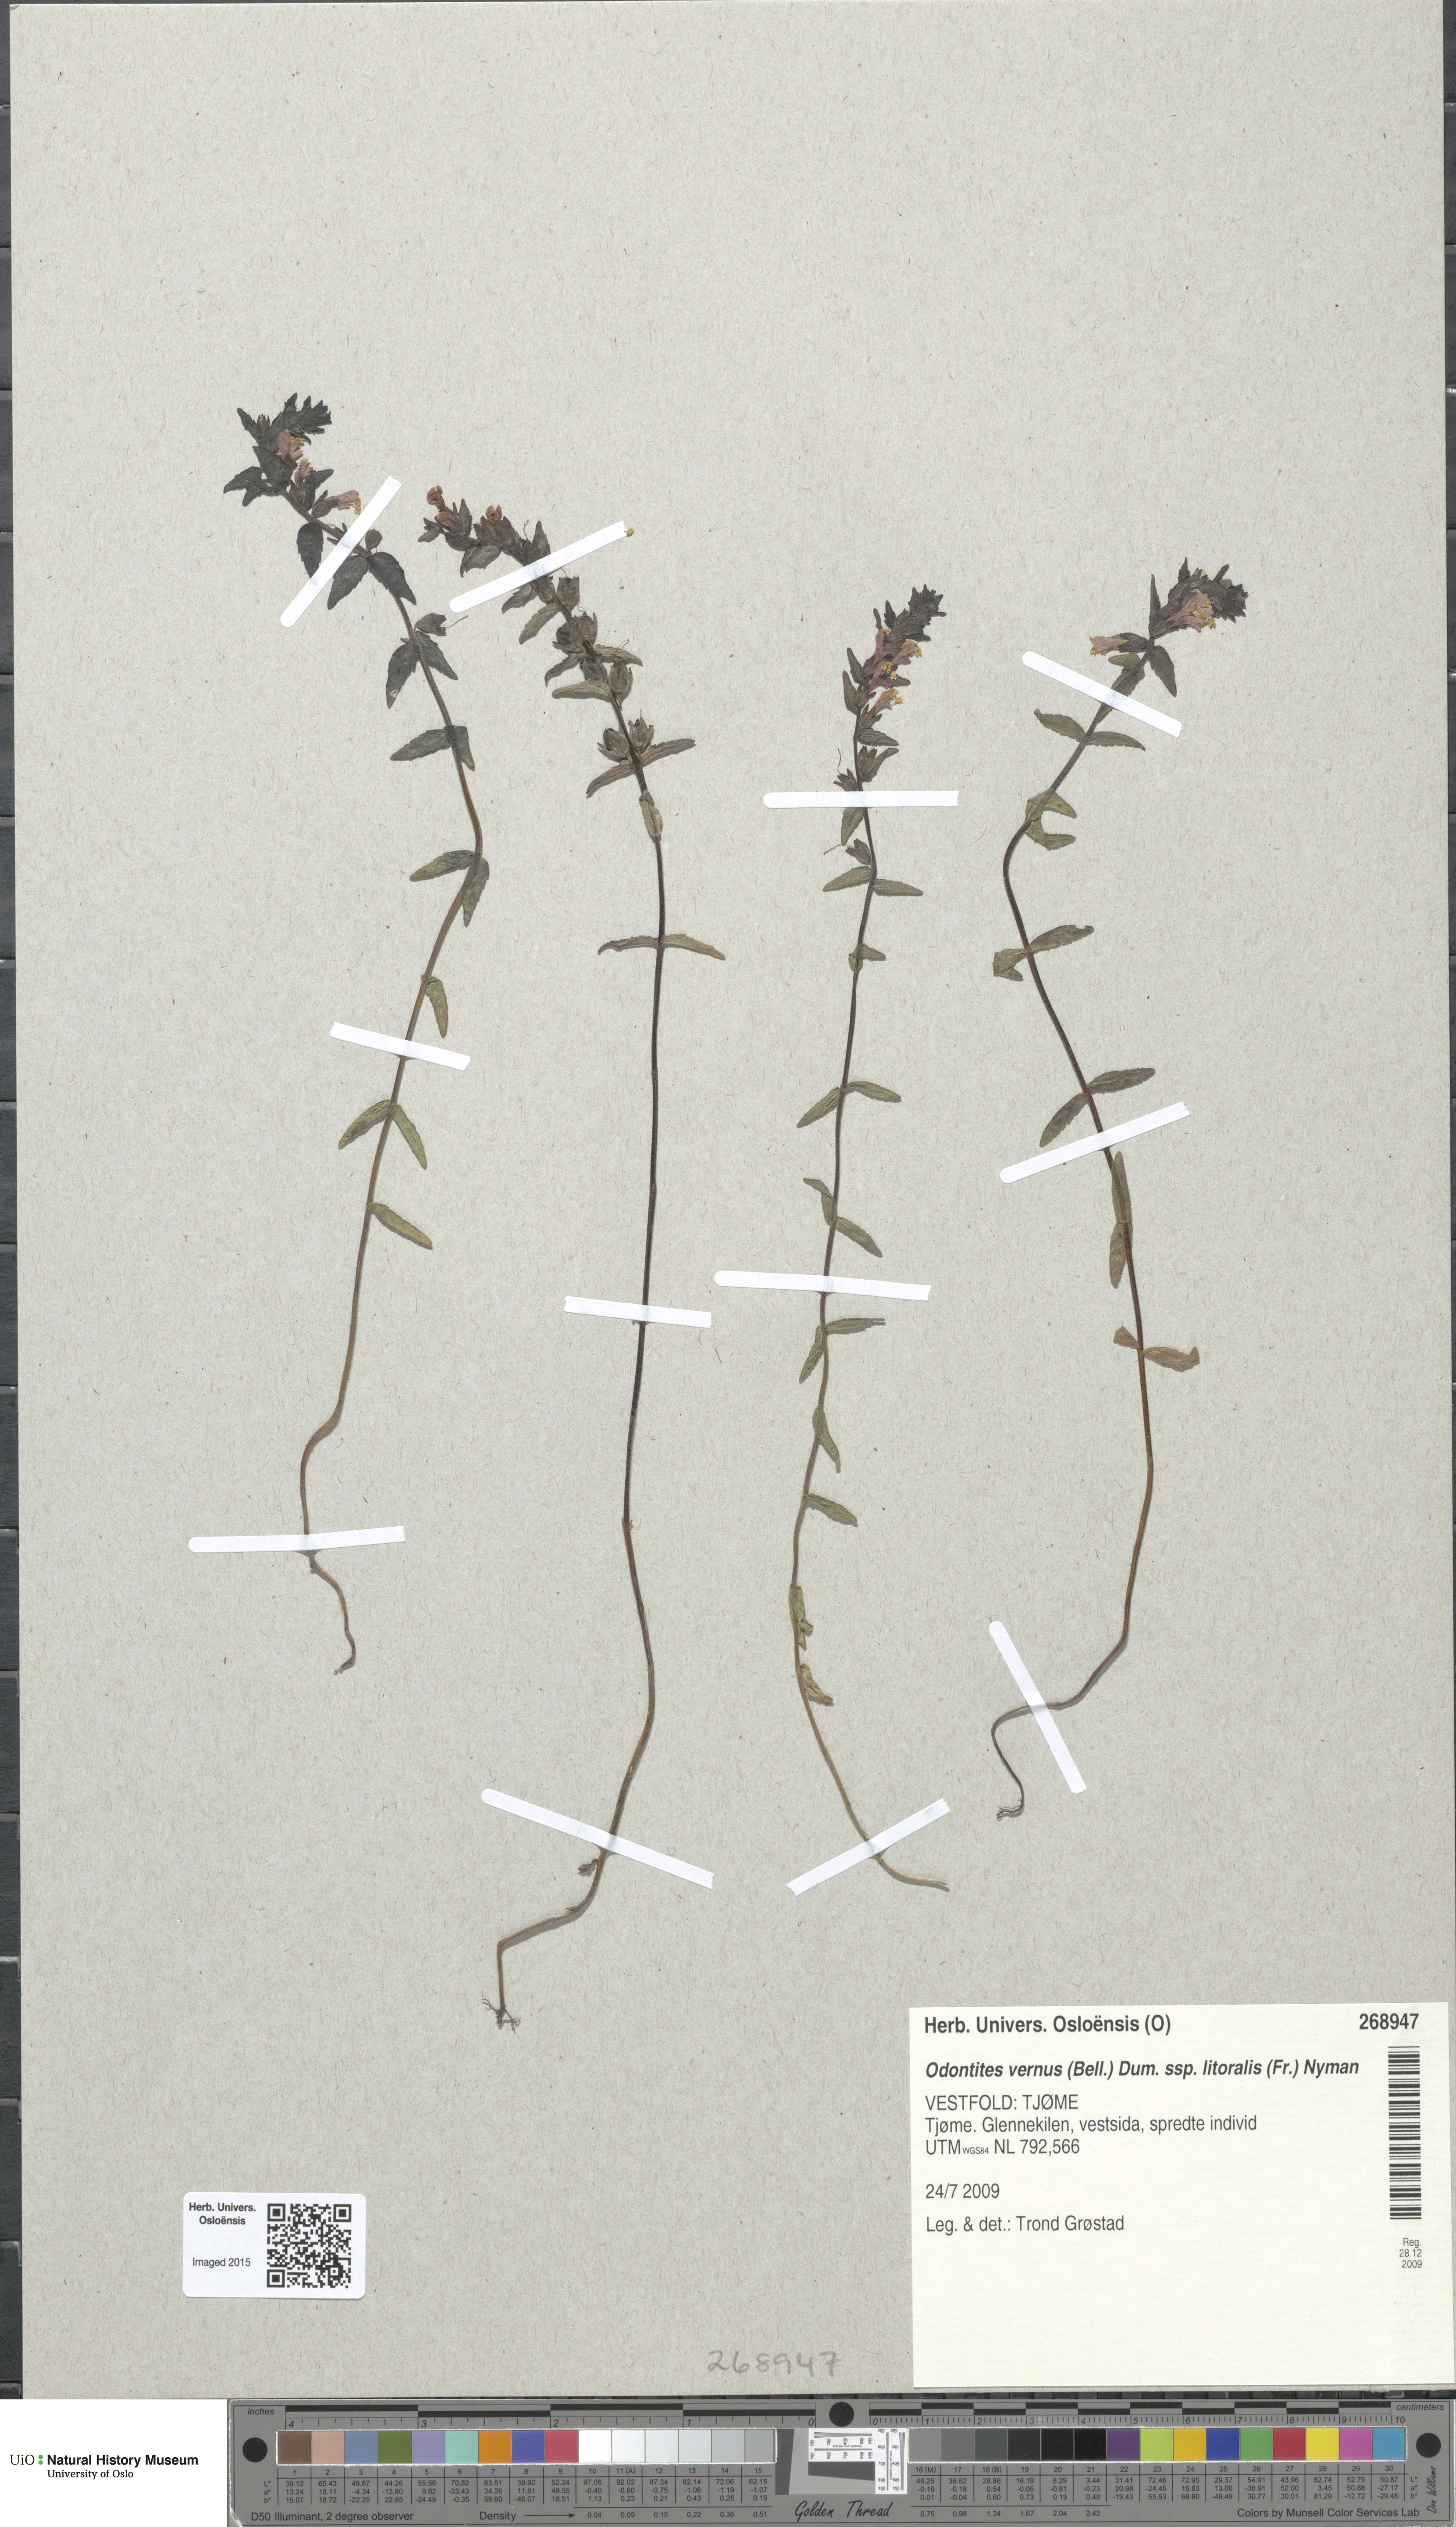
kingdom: Plantae
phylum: Tracheophyta
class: Magnoliopsida
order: Lamiales
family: Orobanchaceae
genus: Odontites
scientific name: Odontites litoralis
